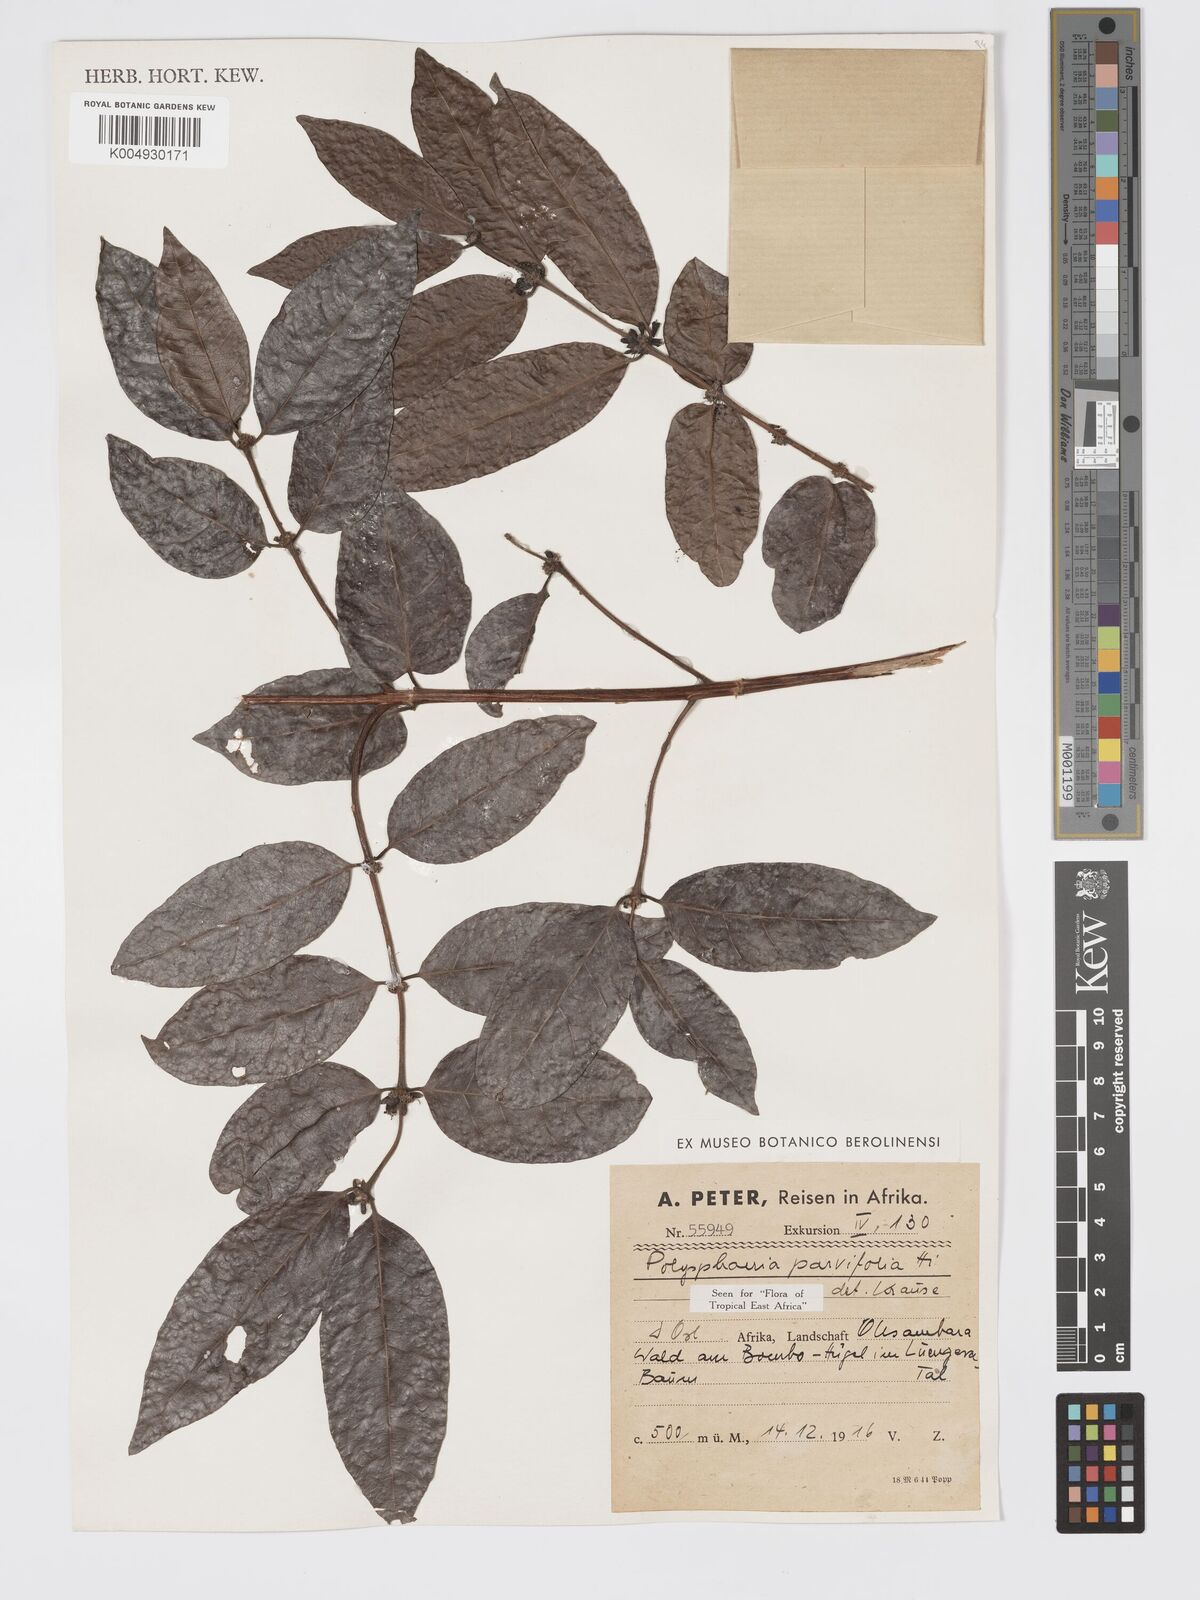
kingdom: Plantae
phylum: Tracheophyta
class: Magnoliopsida
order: Gentianales
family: Rubiaceae
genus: Polysphaeria
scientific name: Polysphaeria parvifolia
